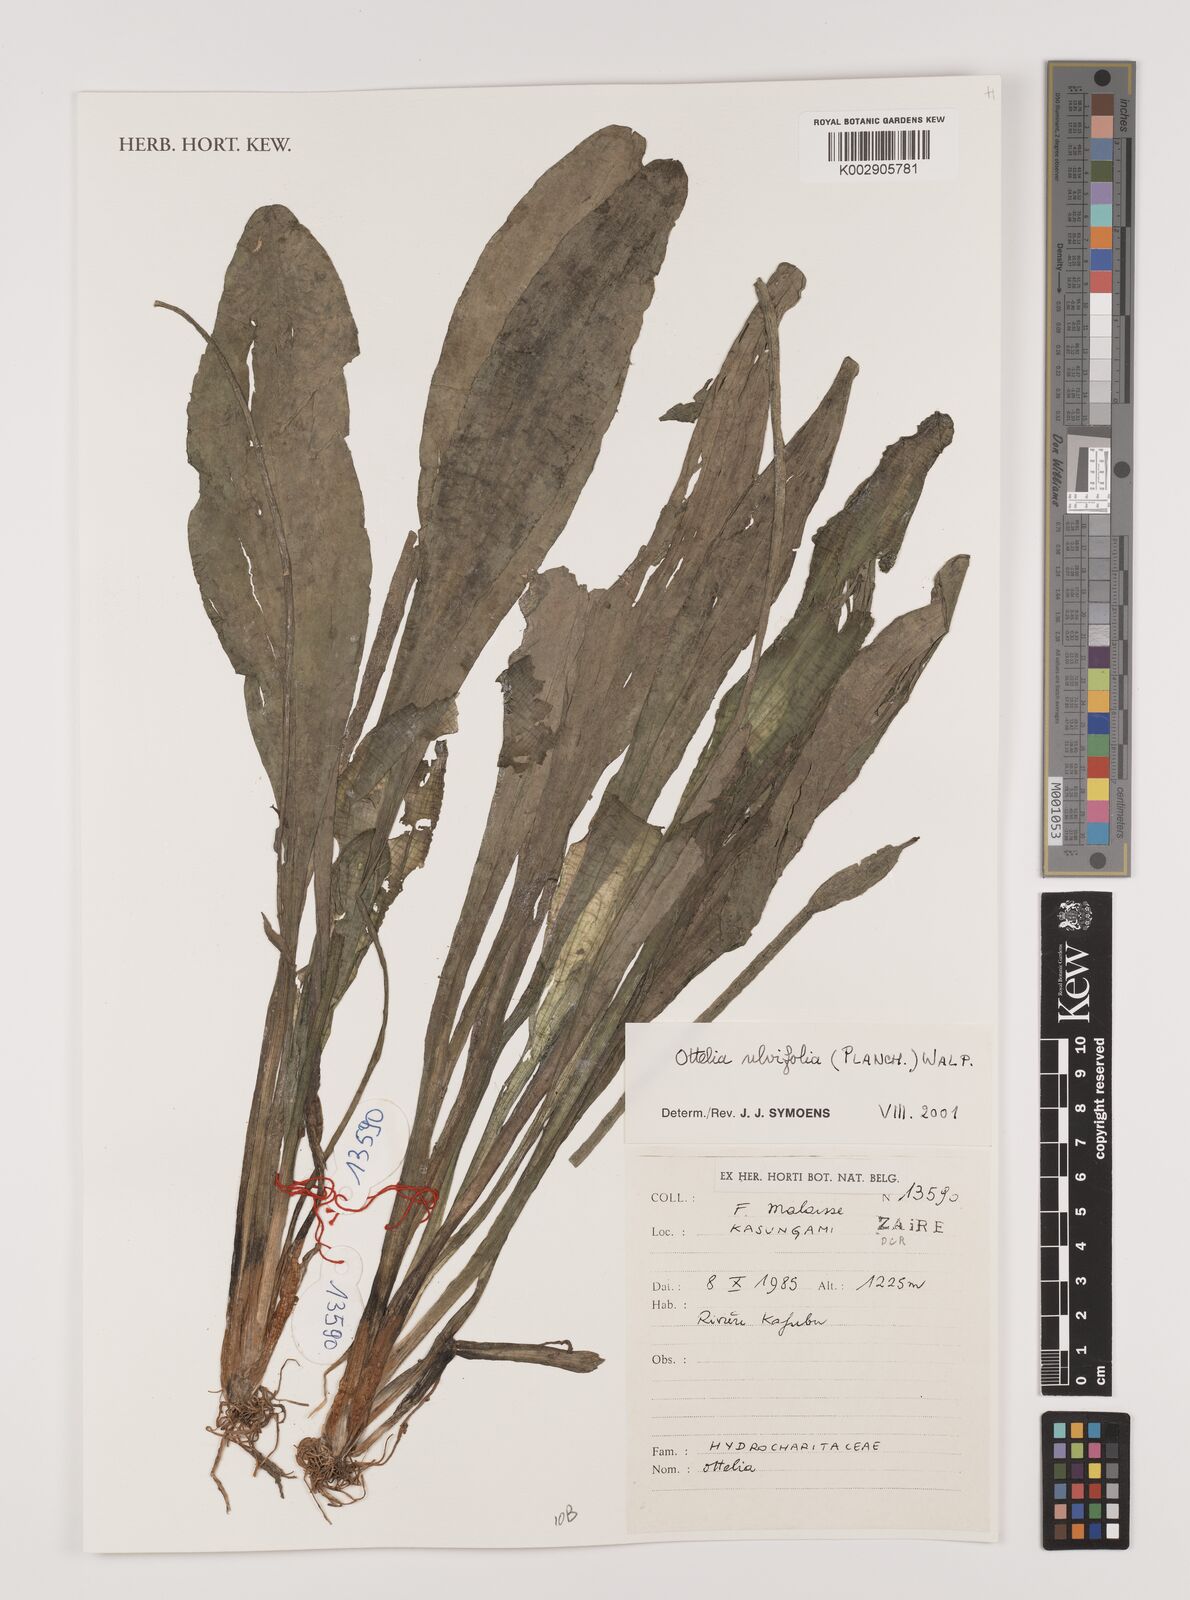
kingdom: Plantae
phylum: Tracheophyta
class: Liliopsida
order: Alismatales
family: Hydrocharitaceae
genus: Ottelia
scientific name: Ottelia ulvifolia
